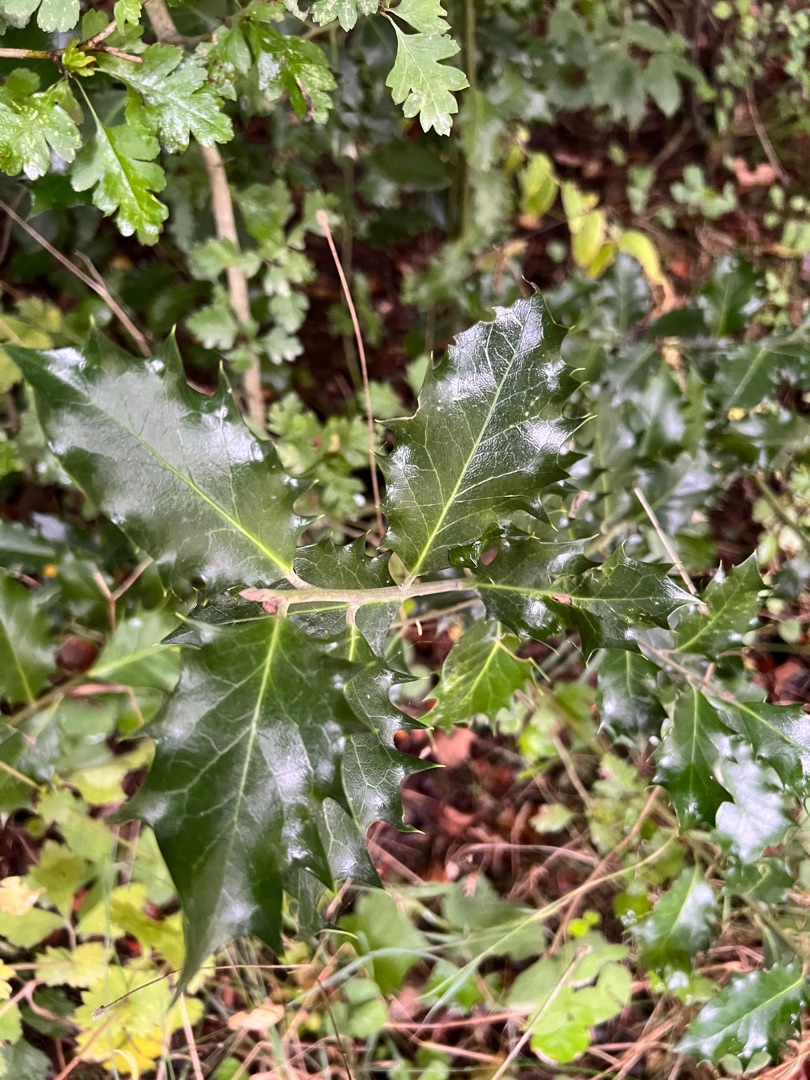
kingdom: Plantae
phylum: Tracheophyta
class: Magnoliopsida
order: Aquifoliales
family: Aquifoliaceae
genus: Ilex
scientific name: Ilex aquifolium
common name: Kristtorn
